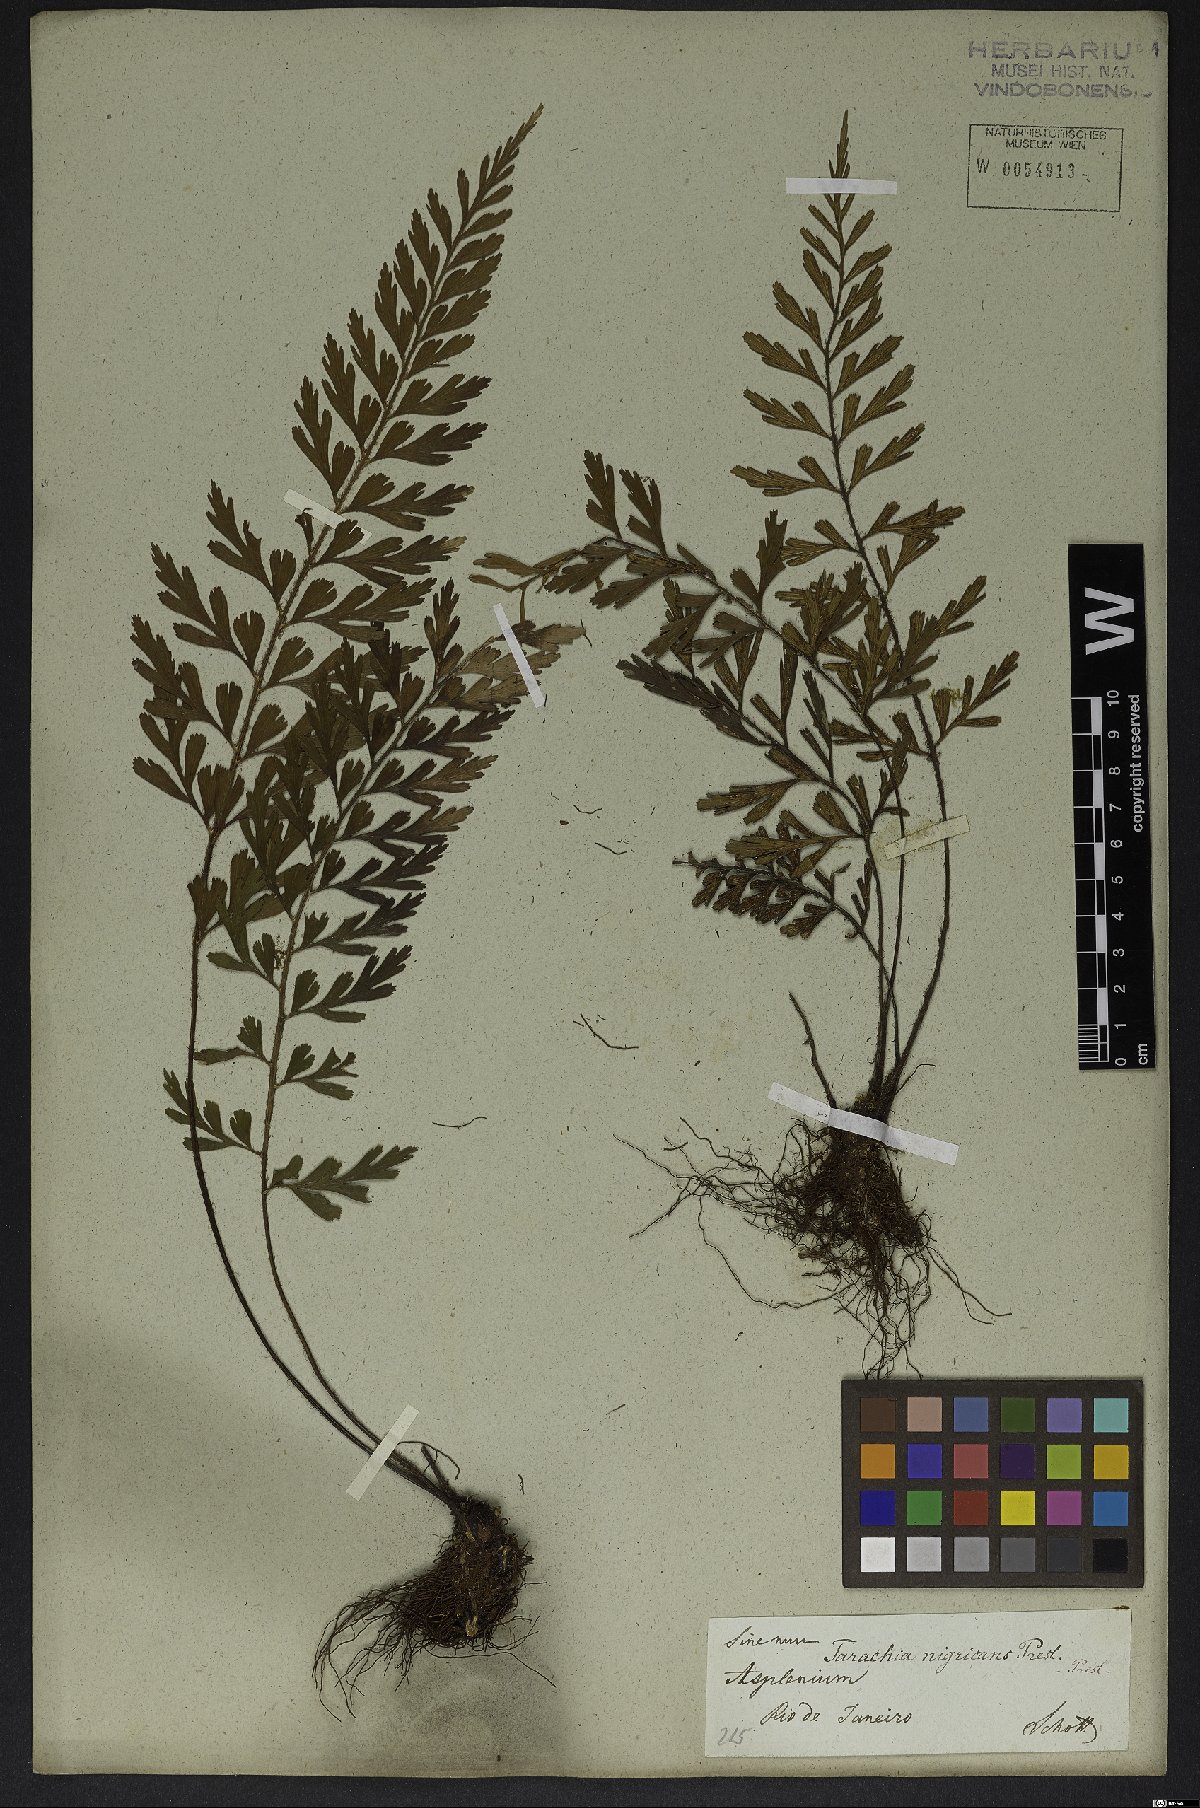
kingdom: Plantae
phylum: Tracheophyta
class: Polypodiopsida
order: Polypodiales
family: Aspleniaceae
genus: Asplenium
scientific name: Asplenium praemorsum
